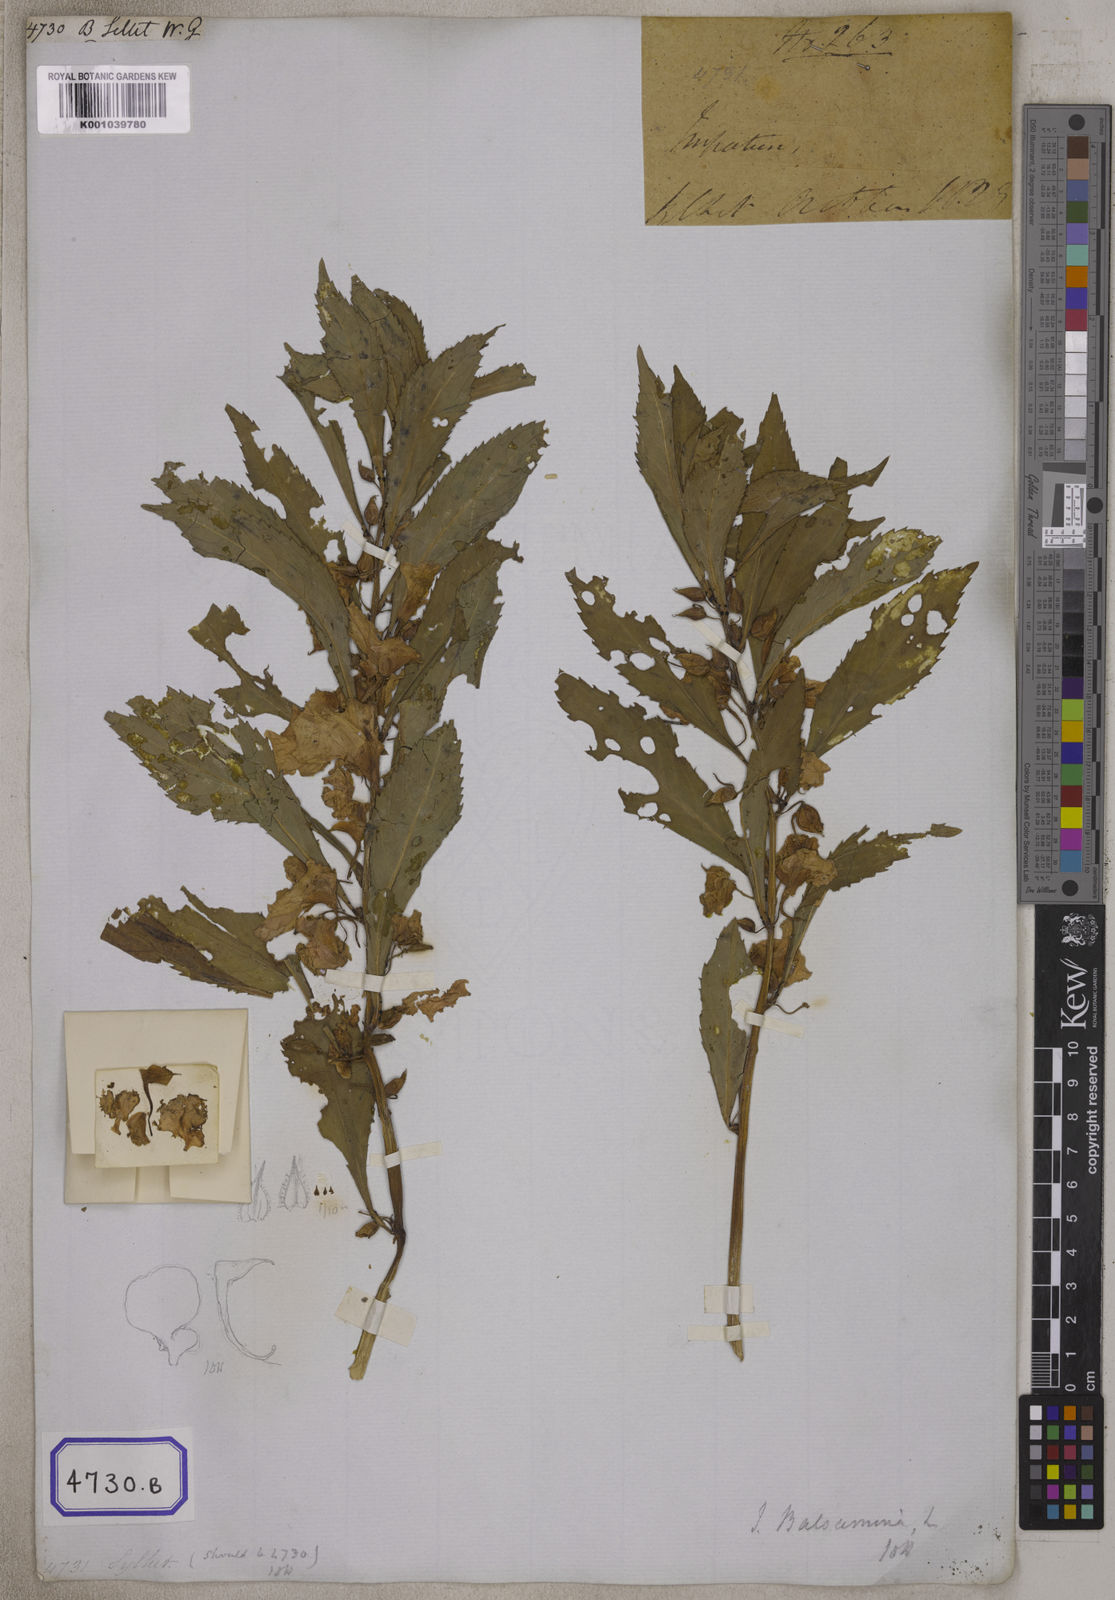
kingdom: Plantae
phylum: Tracheophyta
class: Magnoliopsida
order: Ericales
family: Balsaminaceae
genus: Impatiens
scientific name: Impatiens
